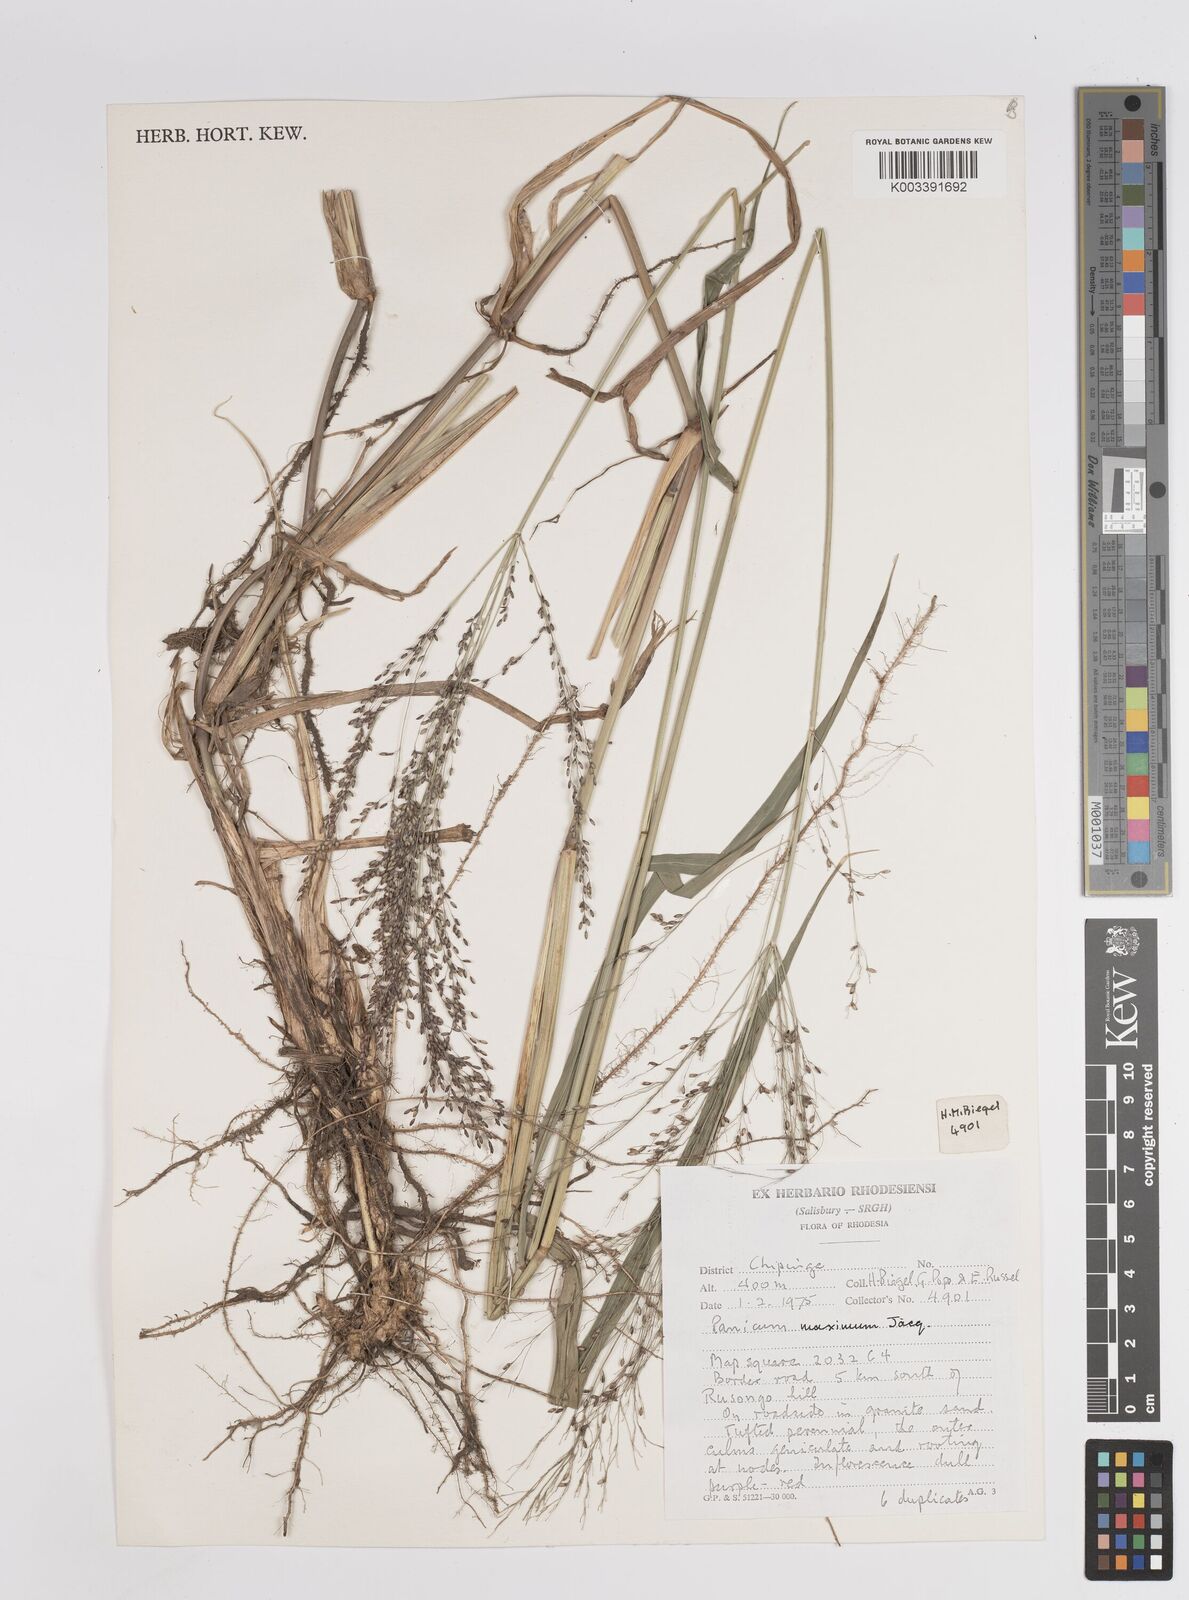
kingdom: Plantae
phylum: Tracheophyta
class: Liliopsida
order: Poales
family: Poaceae
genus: Megathyrsus
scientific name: Megathyrsus maximus
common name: Guineagrass
